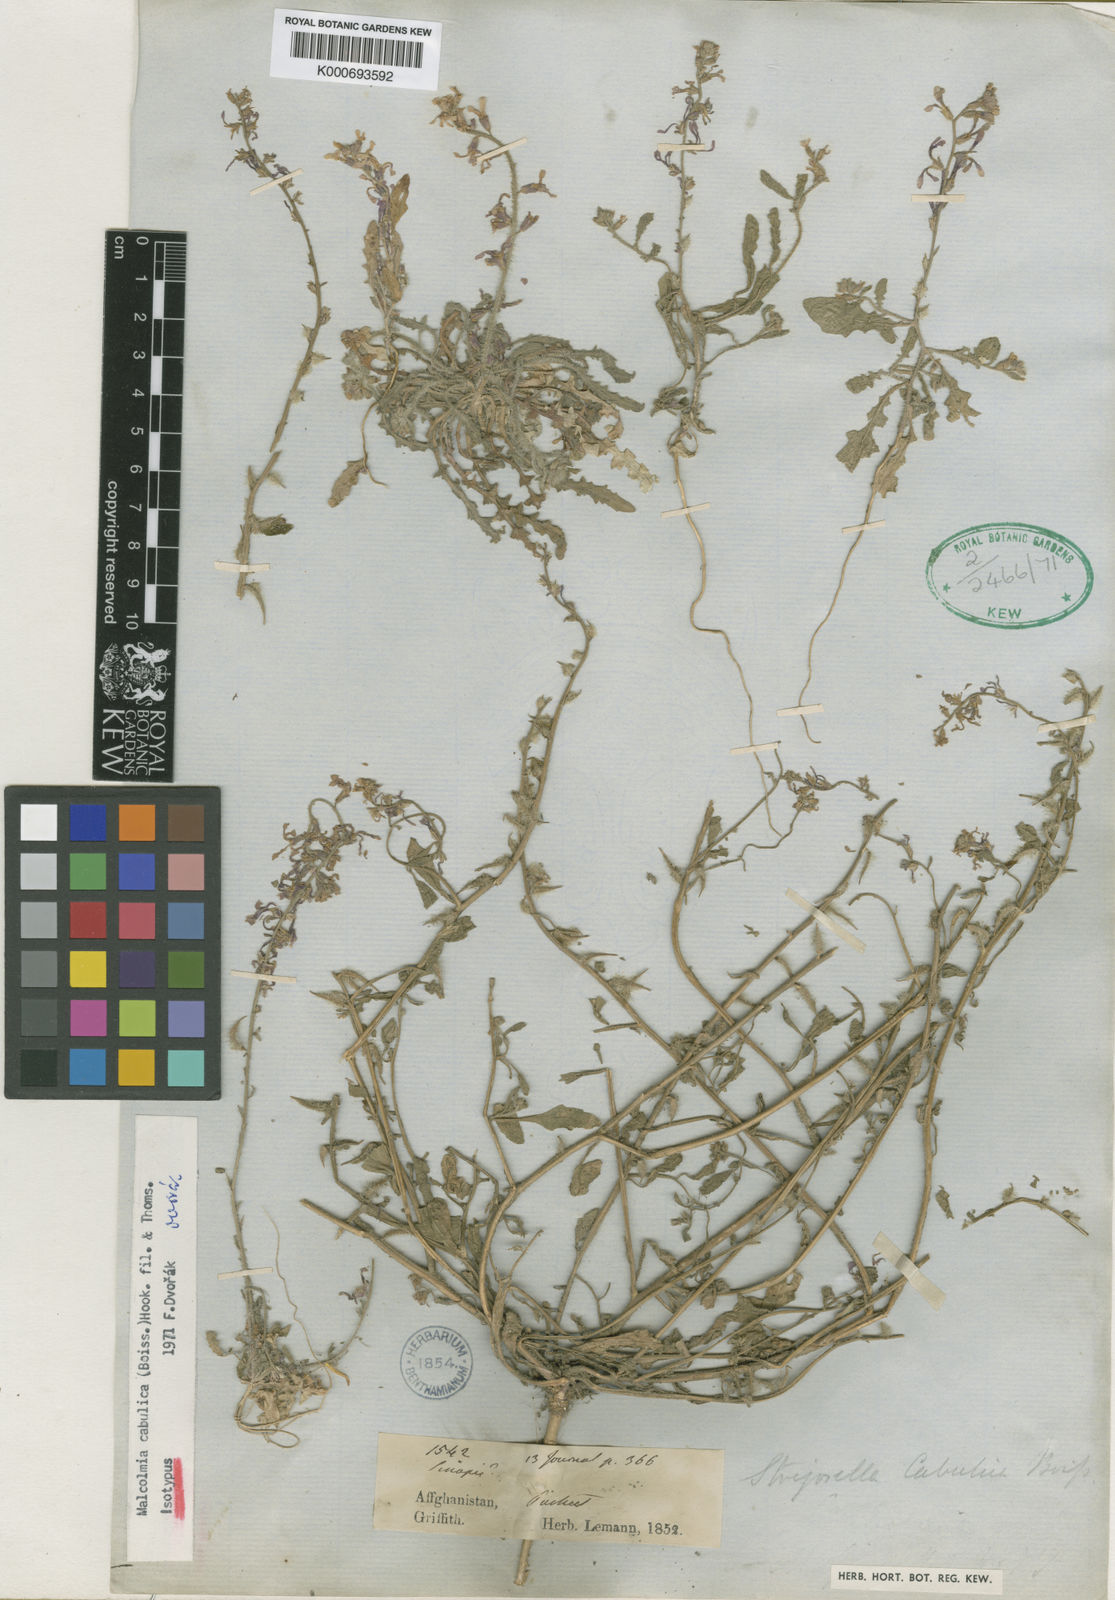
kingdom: Plantae
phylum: Tracheophyta
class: Magnoliopsida
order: Brassicales
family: Brassicaceae
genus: Strigosella
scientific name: Strigosella cabulica
